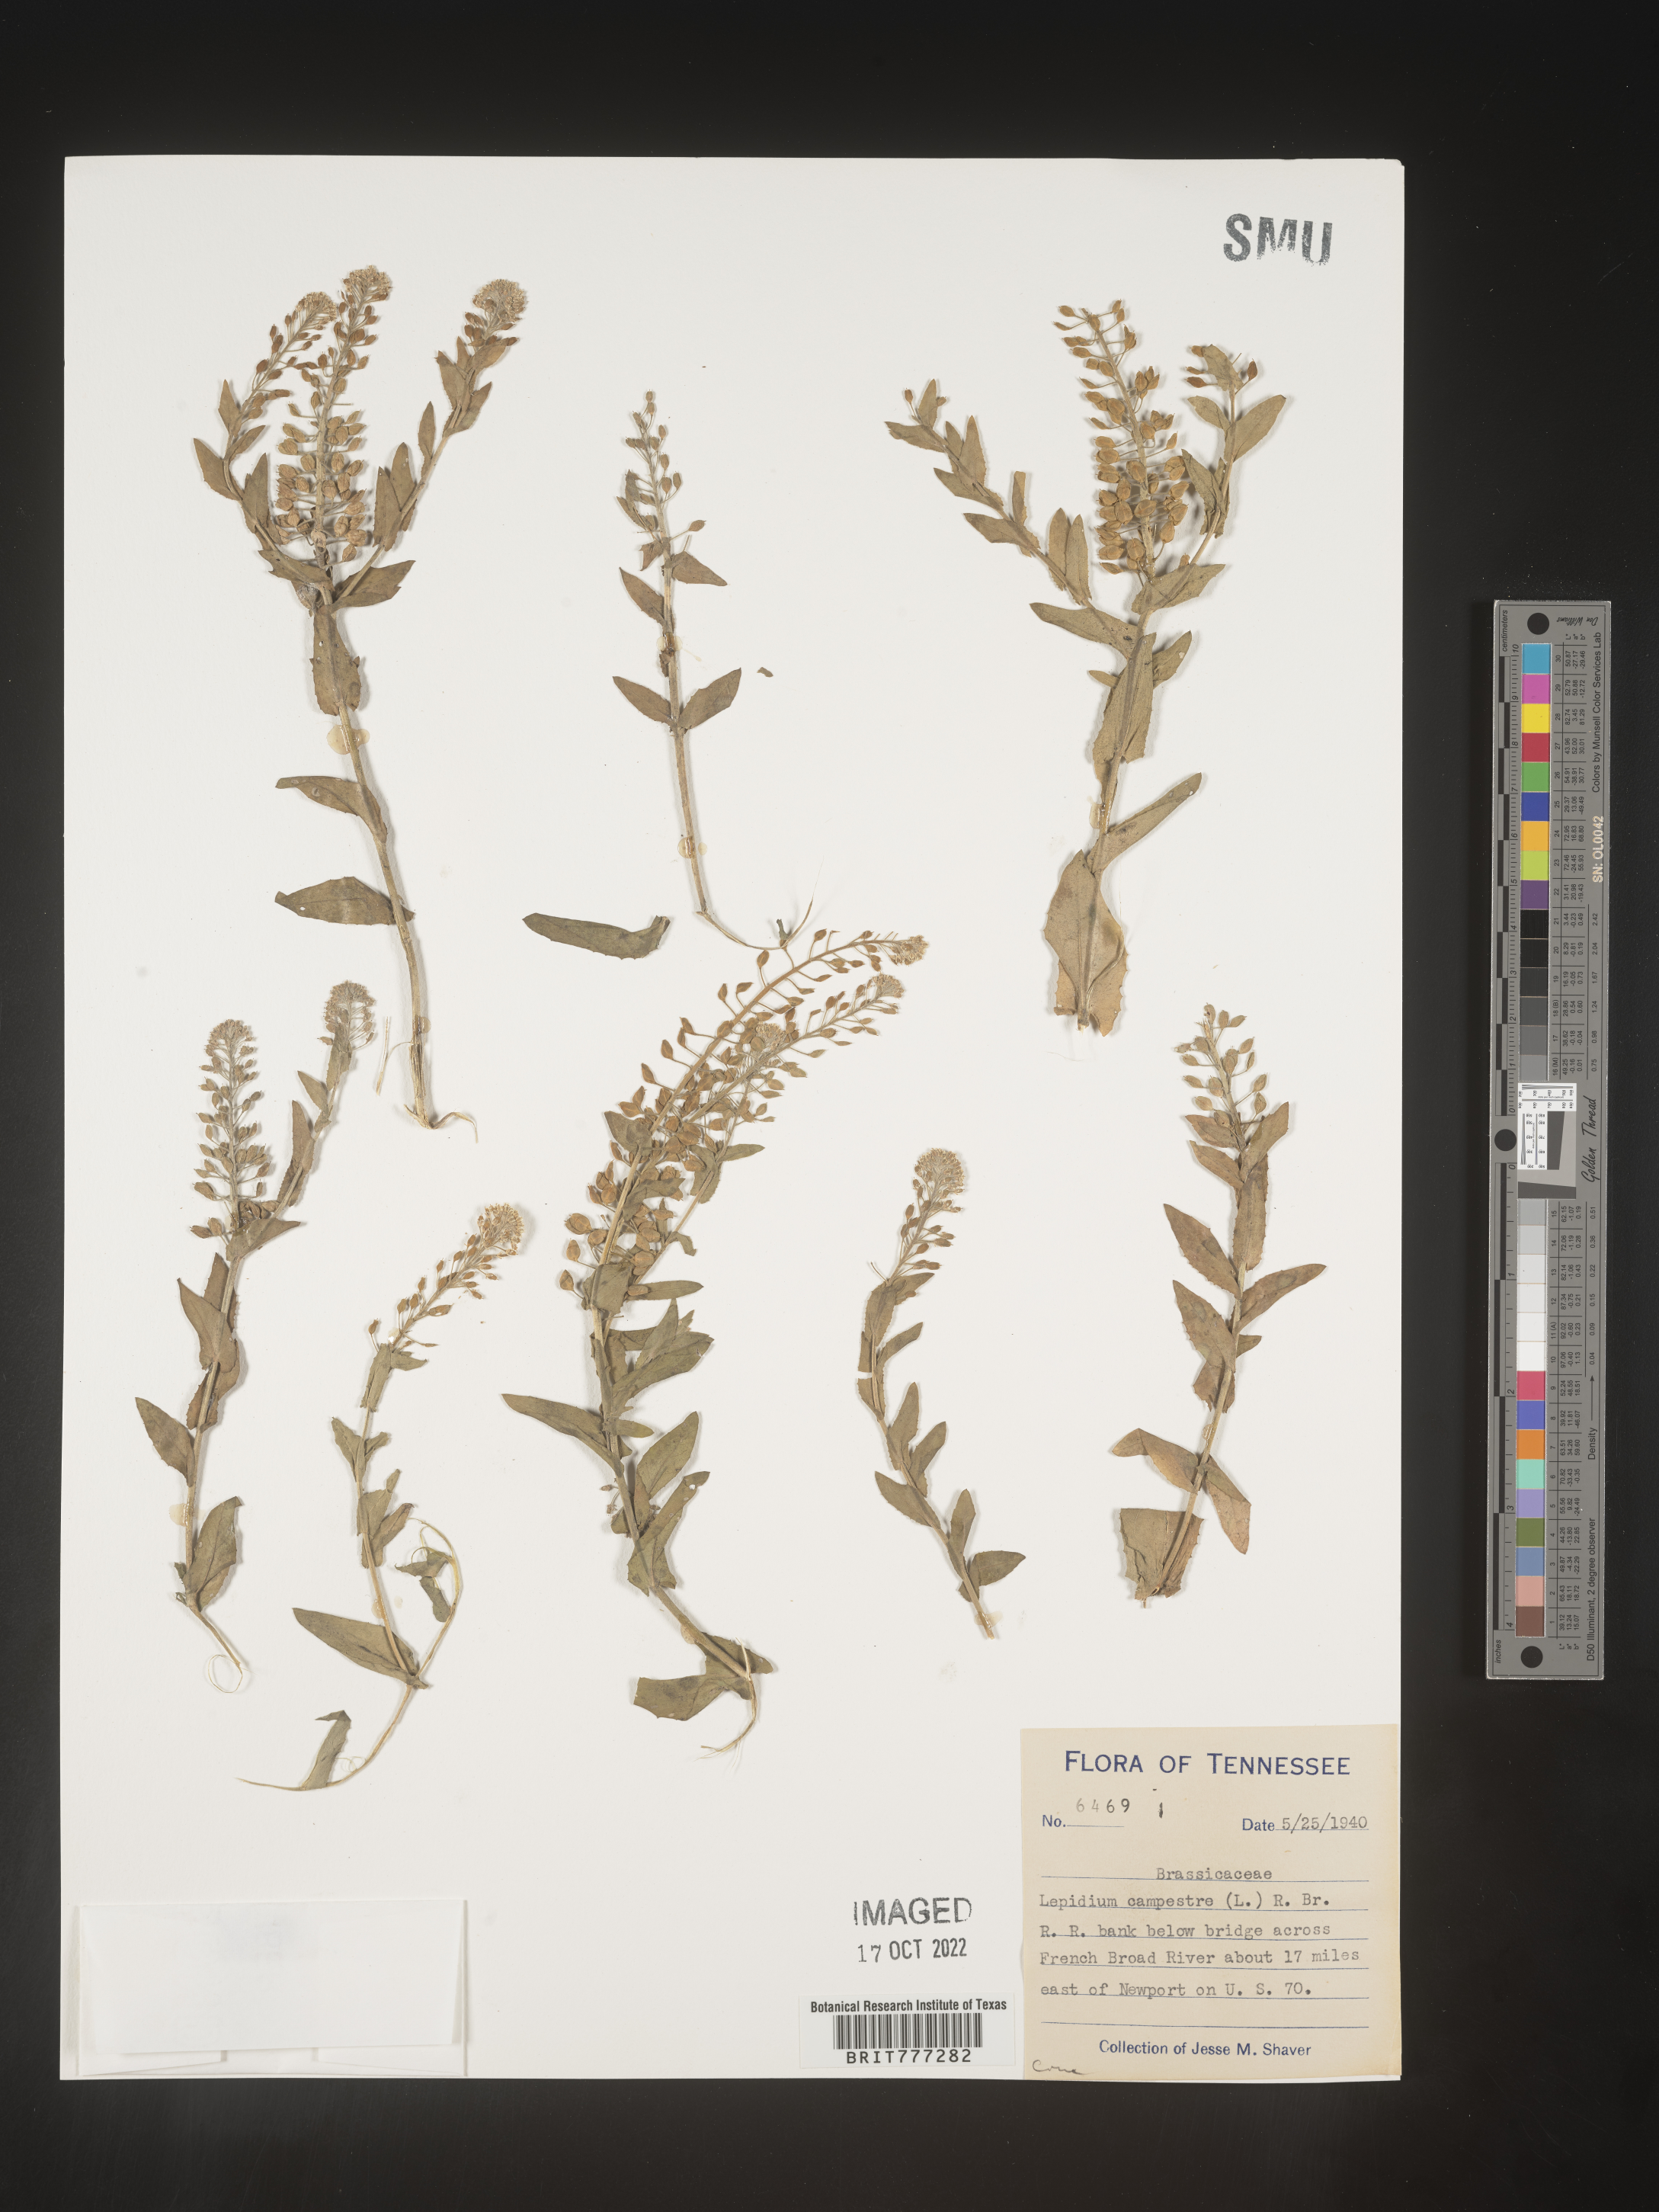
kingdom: Plantae
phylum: Tracheophyta
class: Magnoliopsida
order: Brassicales
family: Brassicaceae
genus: Lepidium
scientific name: Lepidium campestre
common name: Field pepperwort
